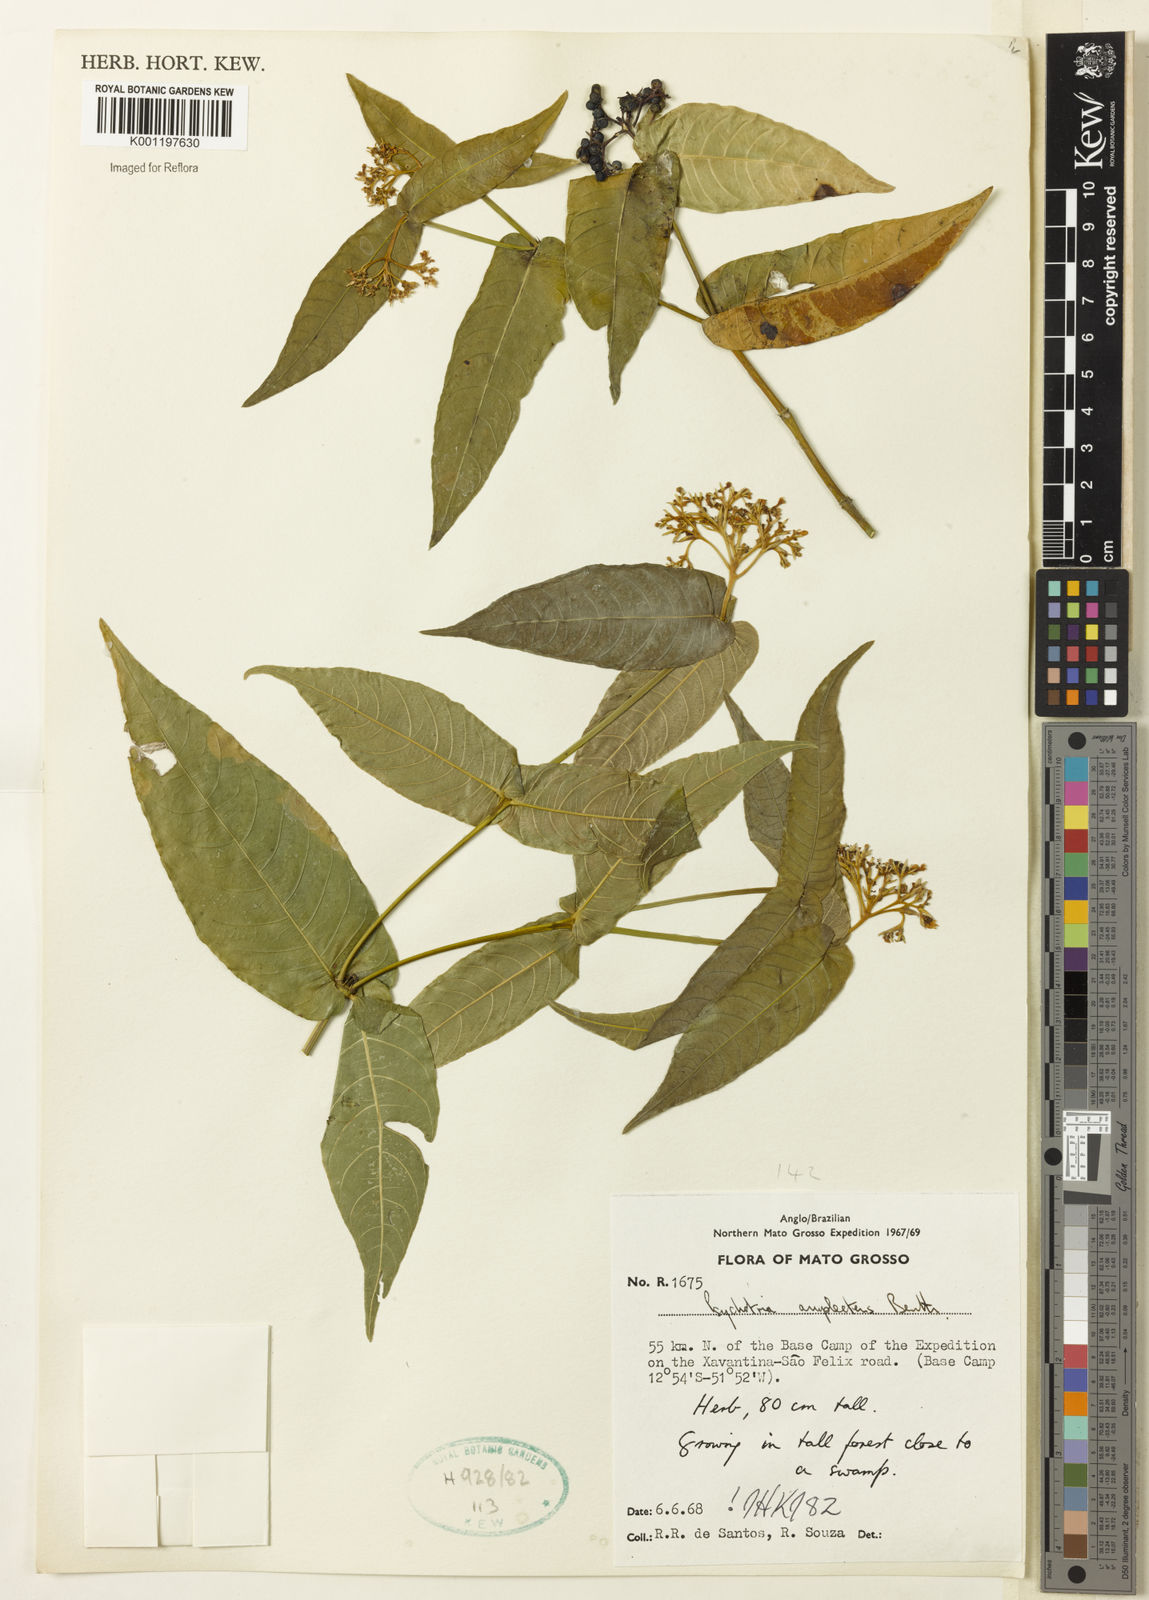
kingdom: Plantae
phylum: Tracheophyta
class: Magnoliopsida
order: Gentianales
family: Rubiaceae
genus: Psychotria
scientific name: Psychotria
